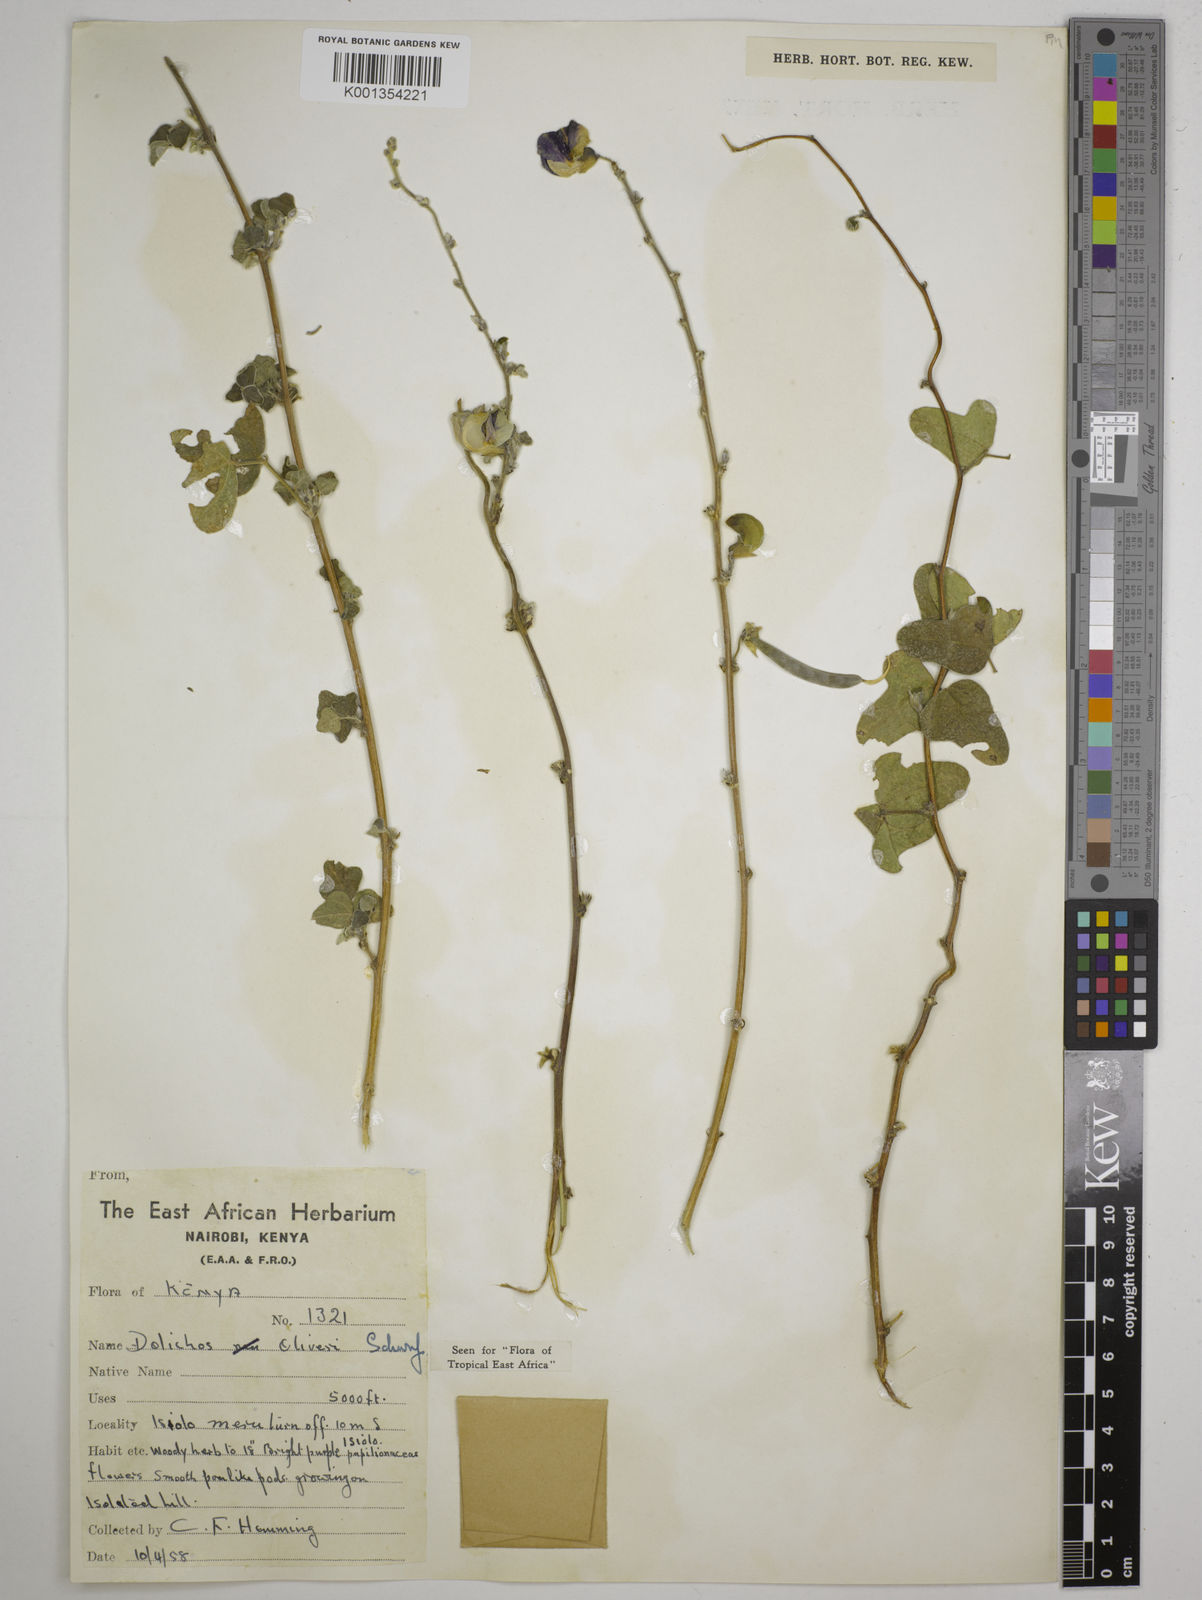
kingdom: Plantae
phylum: Tracheophyta
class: Magnoliopsida
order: Fabales
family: Fabaceae
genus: Dolichos
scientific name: Dolichos
